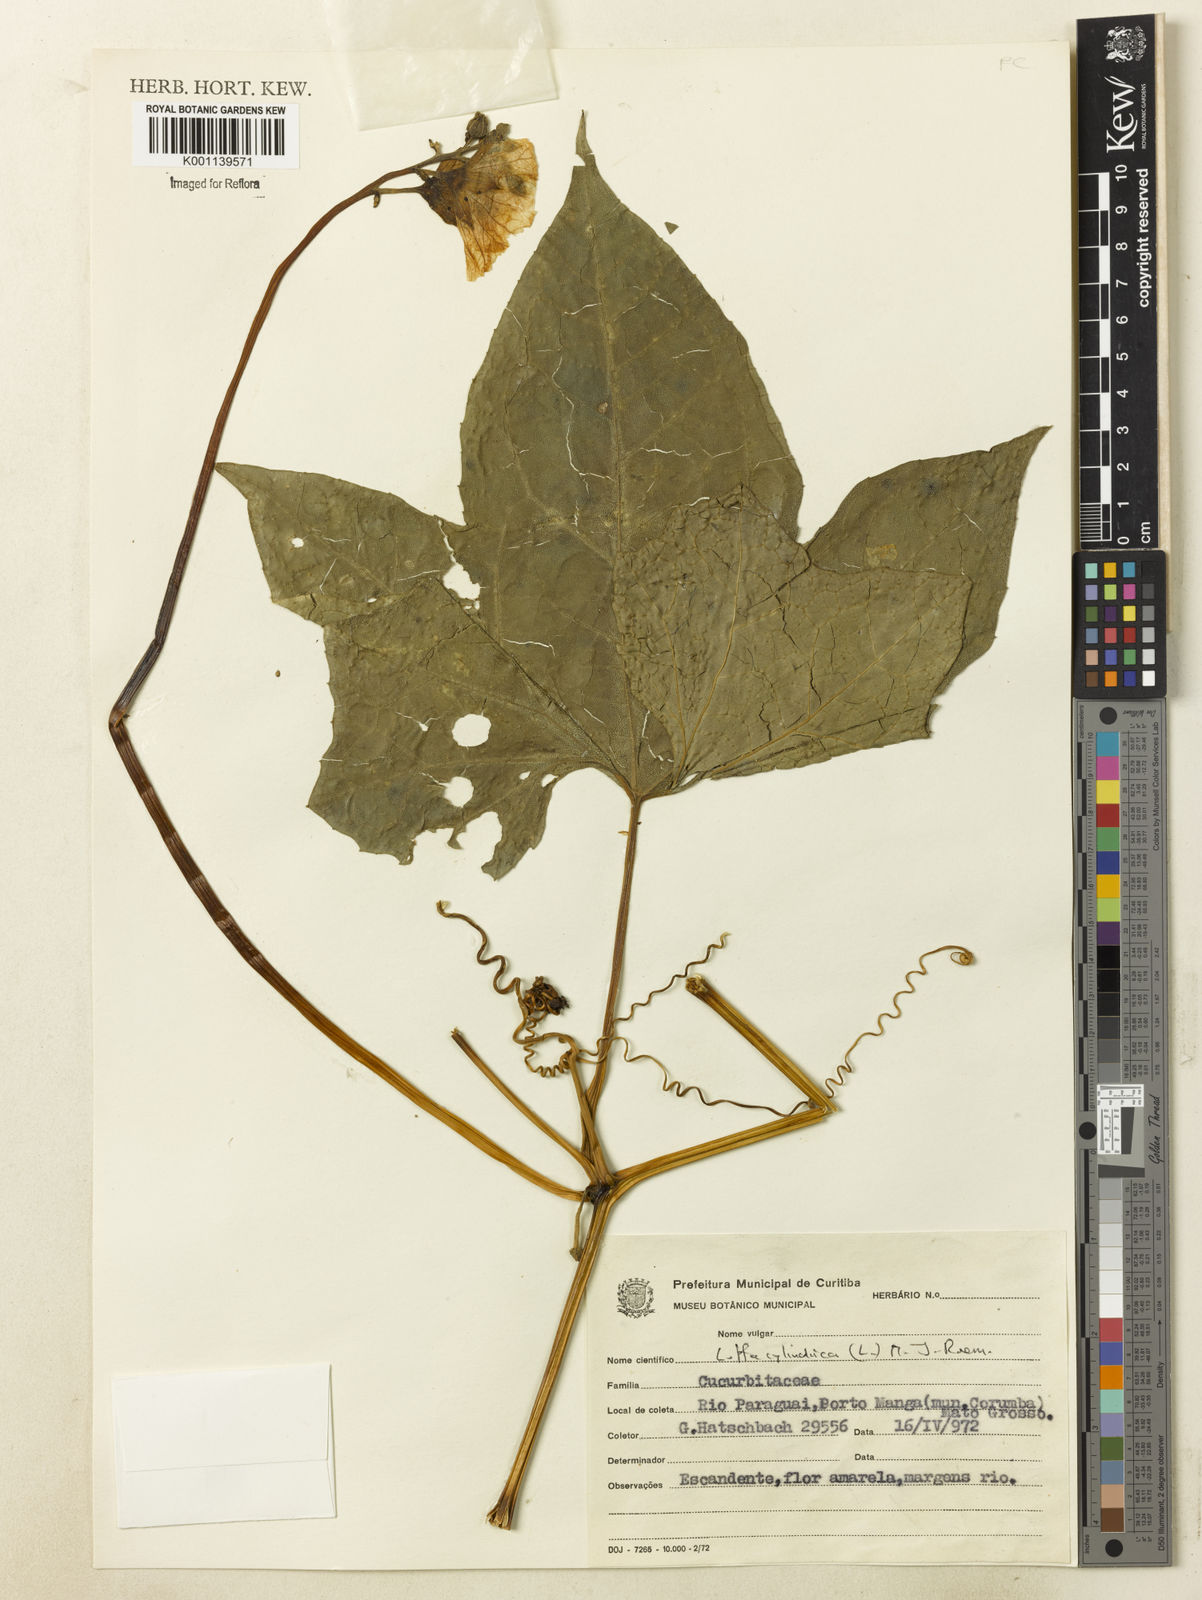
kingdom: Plantae
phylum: Tracheophyta
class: Magnoliopsida
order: Cucurbitales
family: Cucurbitaceae
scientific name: Cucurbitaceae
